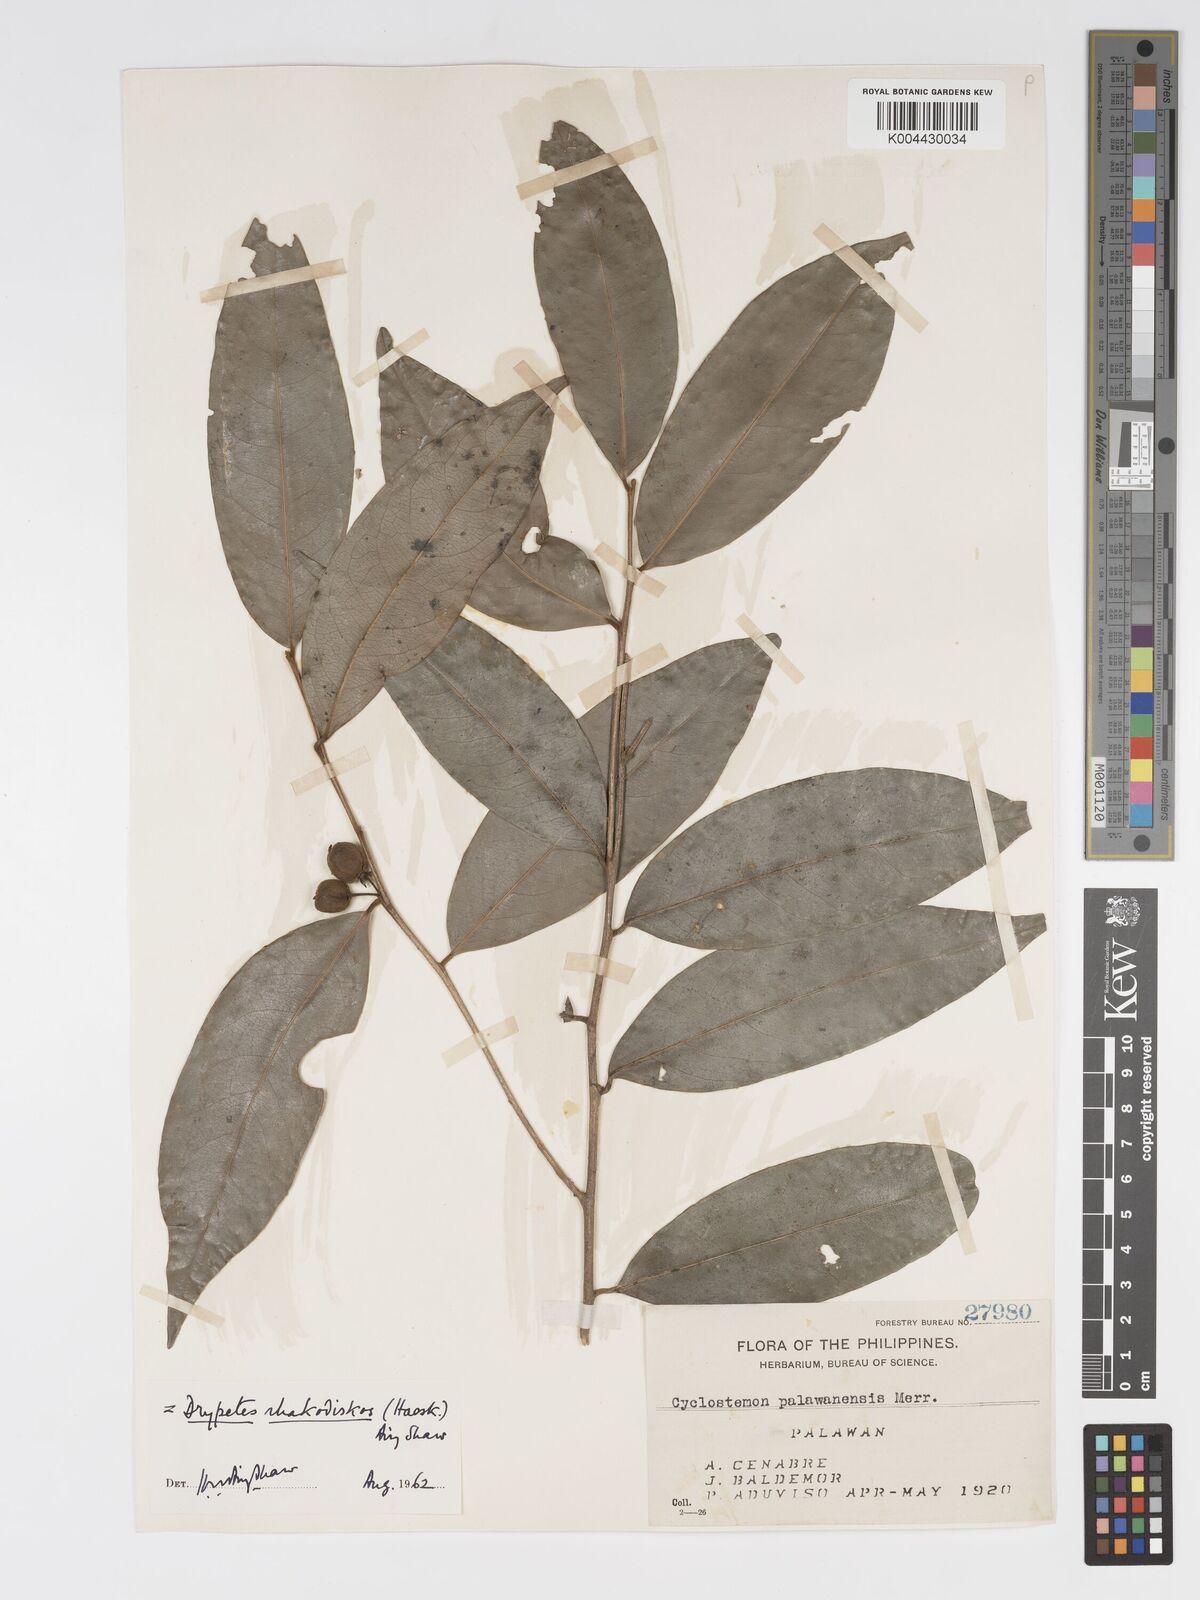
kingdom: Plantae
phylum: Tracheophyta
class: Magnoliopsida
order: Malpighiales
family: Putranjivaceae
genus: Drypetes
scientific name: Drypetes rhakodiskos
